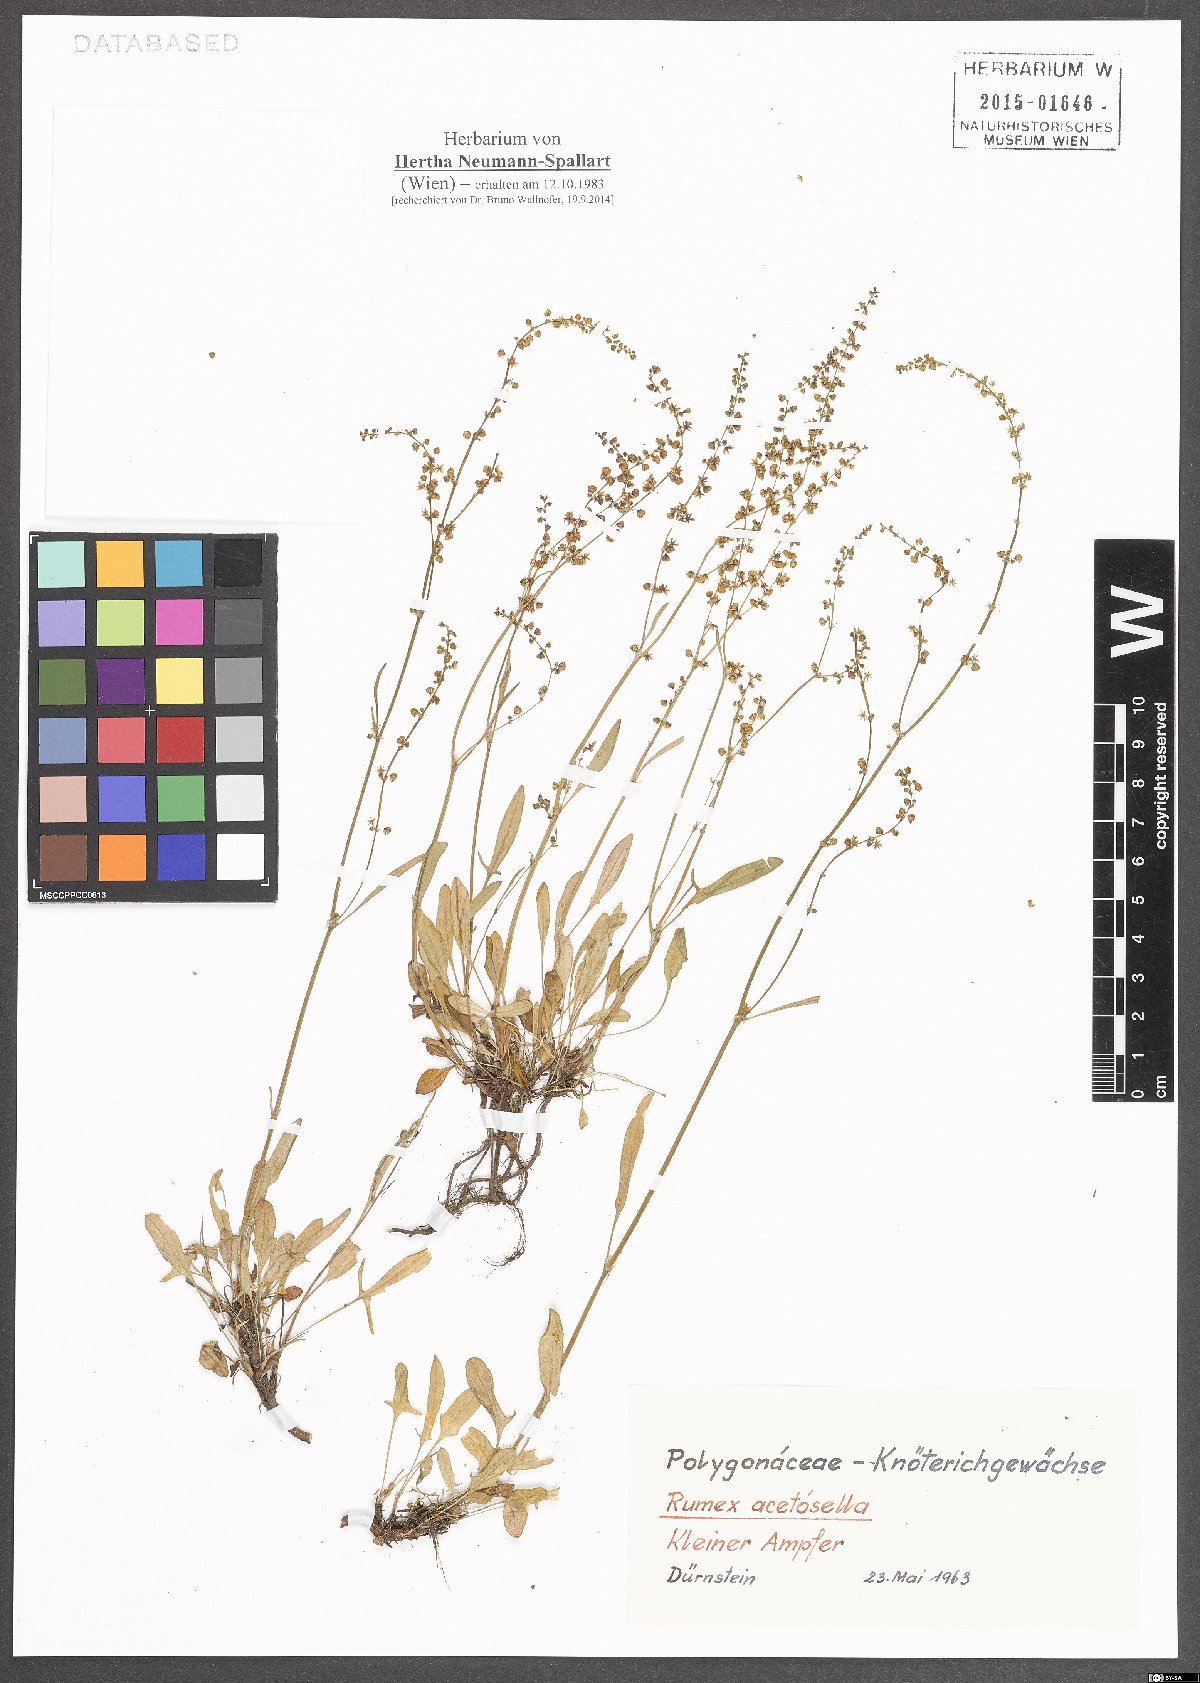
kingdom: Plantae
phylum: Tracheophyta
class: Magnoliopsida
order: Caryophyllales
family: Polygonaceae
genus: Rumex
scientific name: Rumex acetosella
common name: Common sheep sorrel
